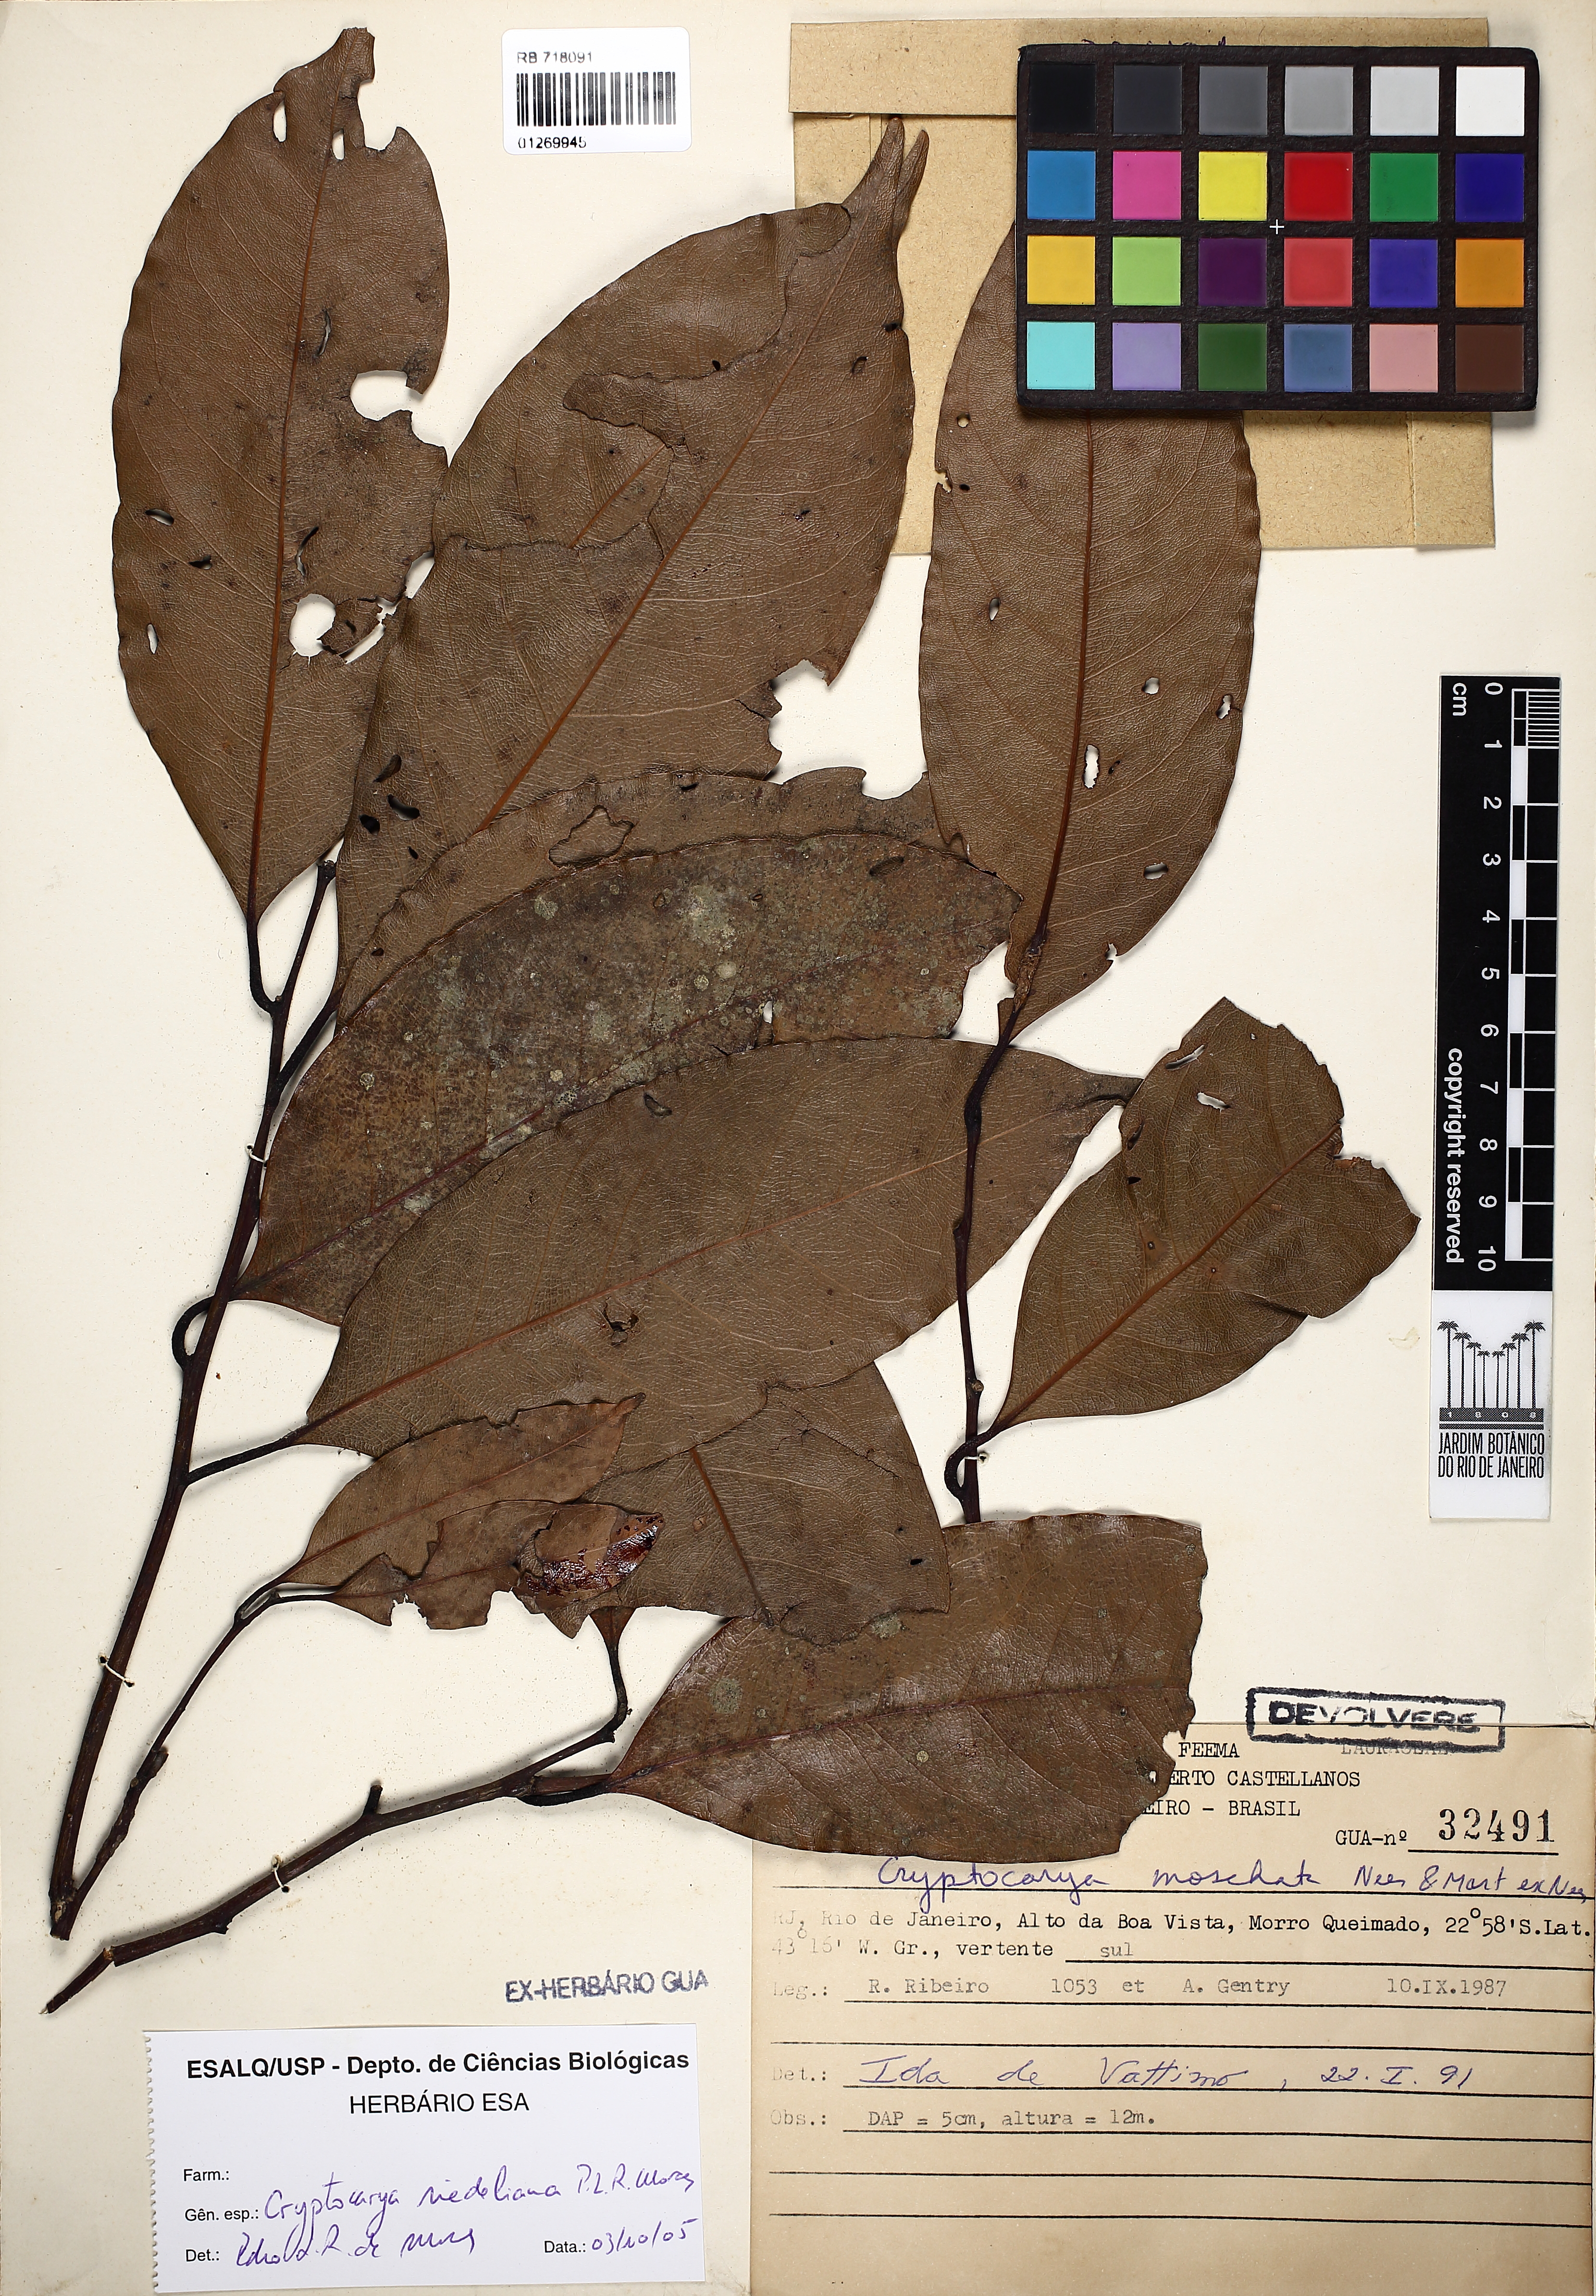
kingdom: Plantae
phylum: Tracheophyta
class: Magnoliopsida
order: Laurales
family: Lauraceae
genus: Cryptocarya
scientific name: Cryptocarya riedeliana
